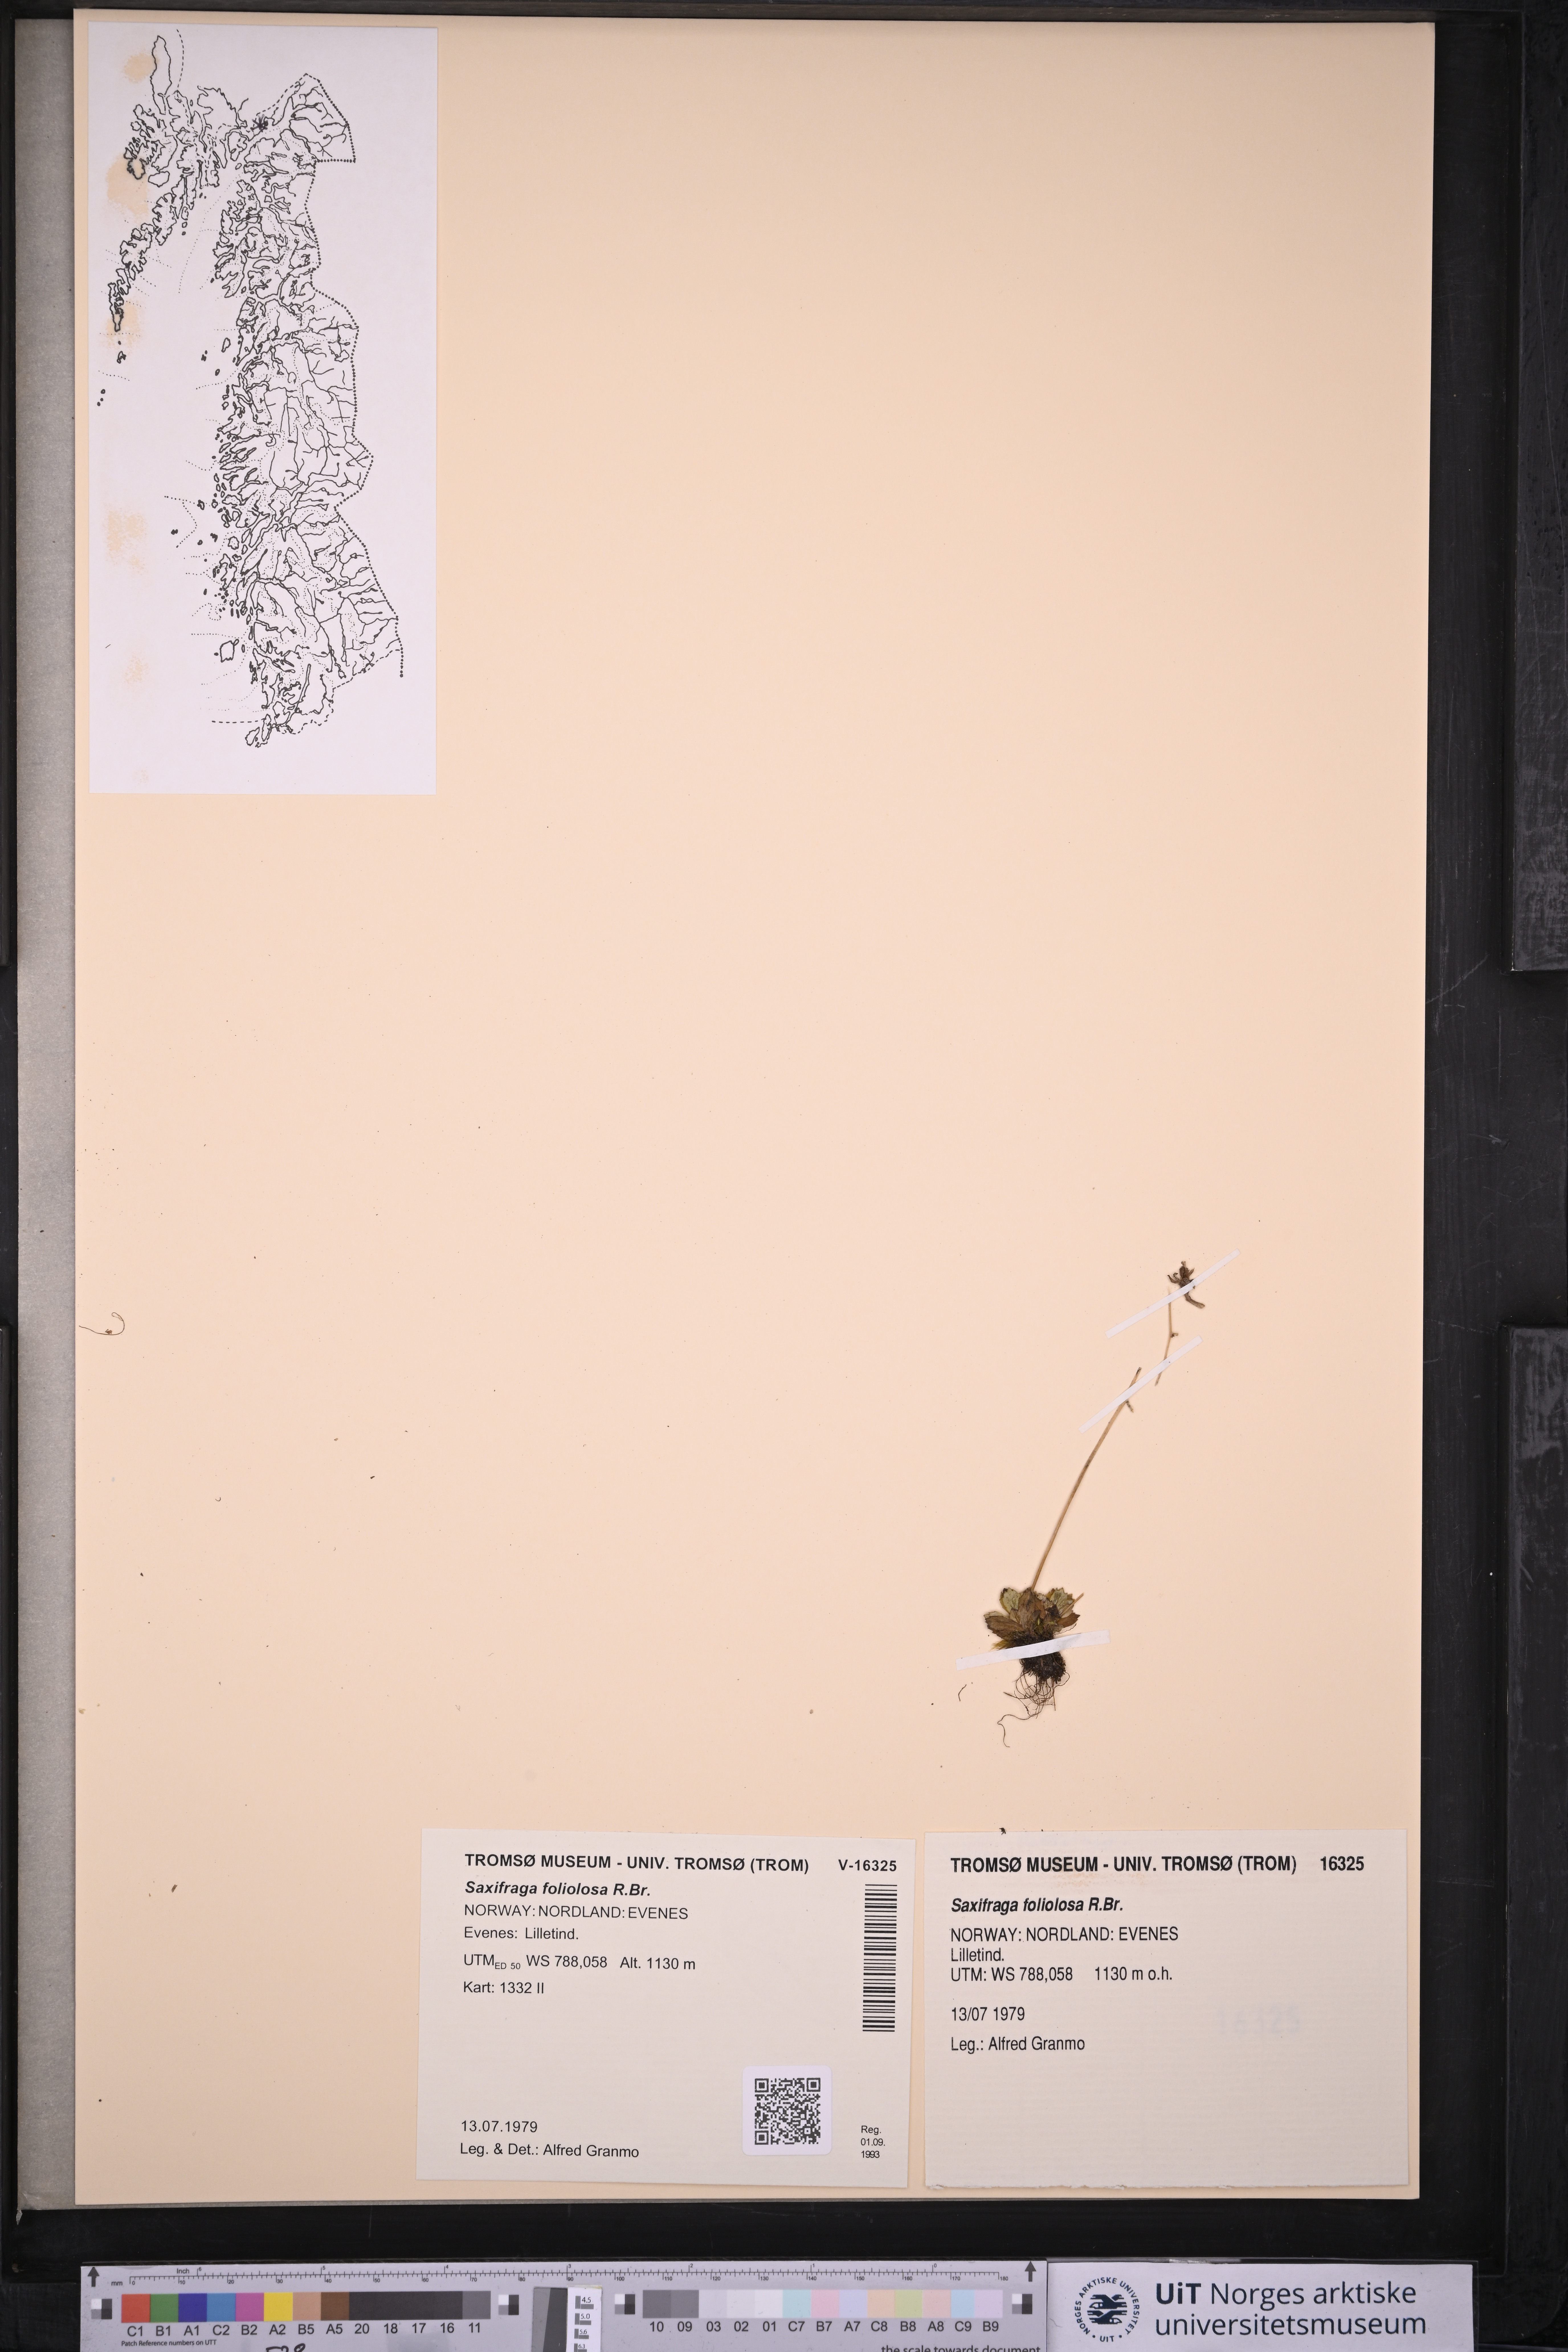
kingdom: Plantae
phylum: Tracheophyta
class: Magnoliopsida
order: Saxifragales
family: Saxifragaceae
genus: Micranthes
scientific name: Micranthes foliolosa
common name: Leafystem saxifrage
